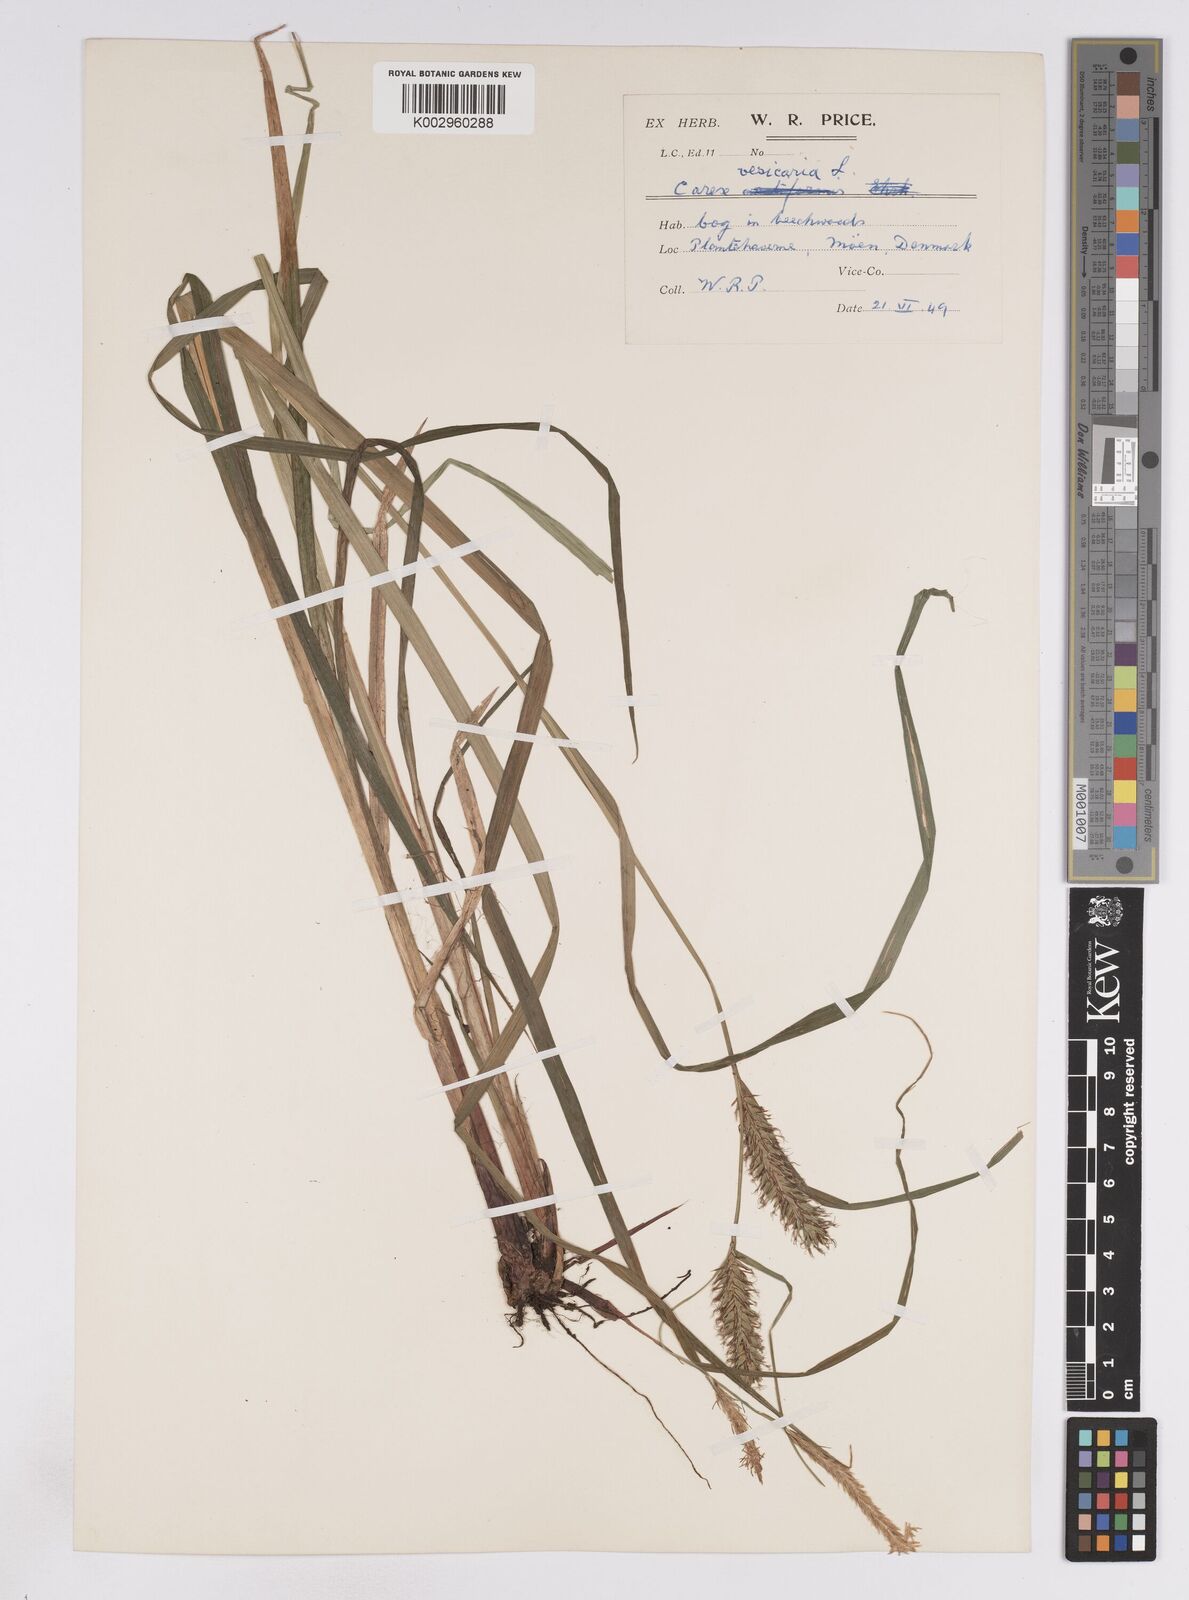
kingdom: Plantae
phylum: Tracheophyta
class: Liliopsida
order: Poales
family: Cyperaceae
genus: Carex
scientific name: Carex vesicaria
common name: Bladder-sedge
